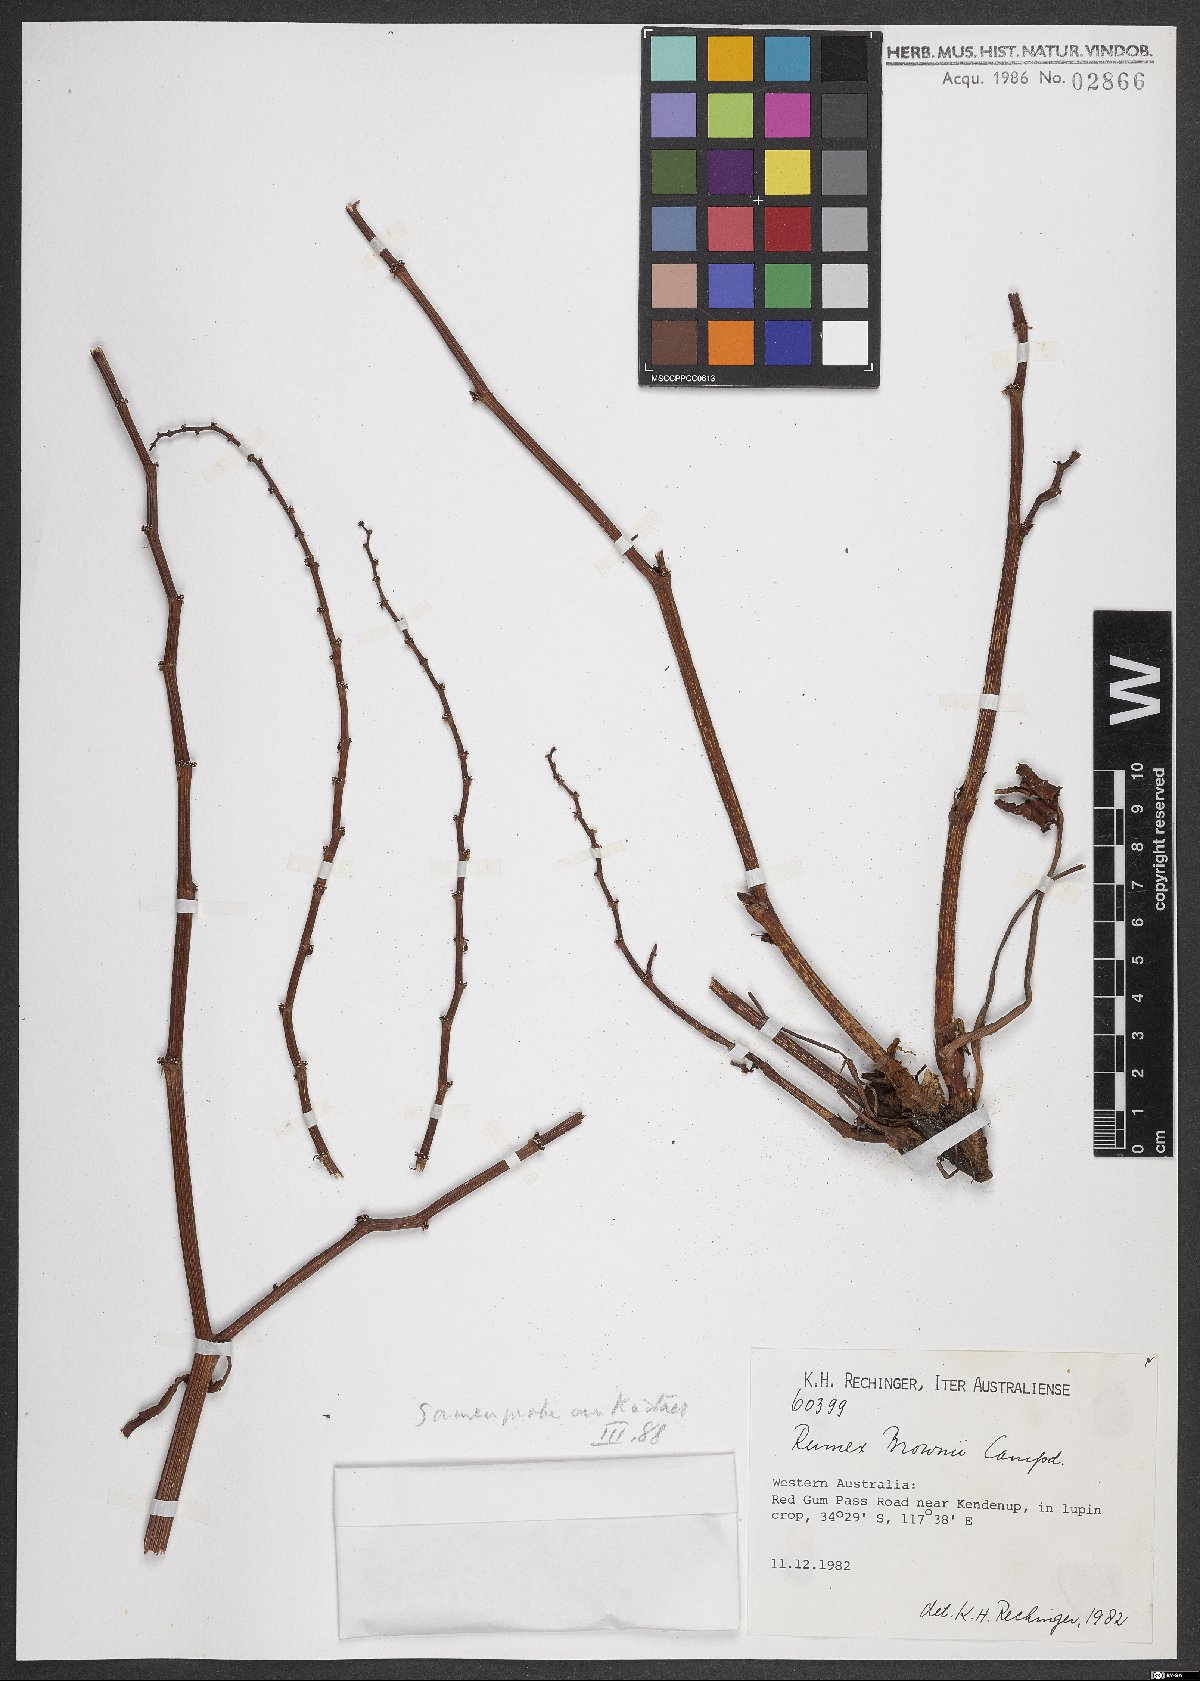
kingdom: Plantae
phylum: Tracheophyta
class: Magnoliopsida
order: Caryophyllales
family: Polygonaceae
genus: Rumex
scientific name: Rumex brownii
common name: Hooked dock
